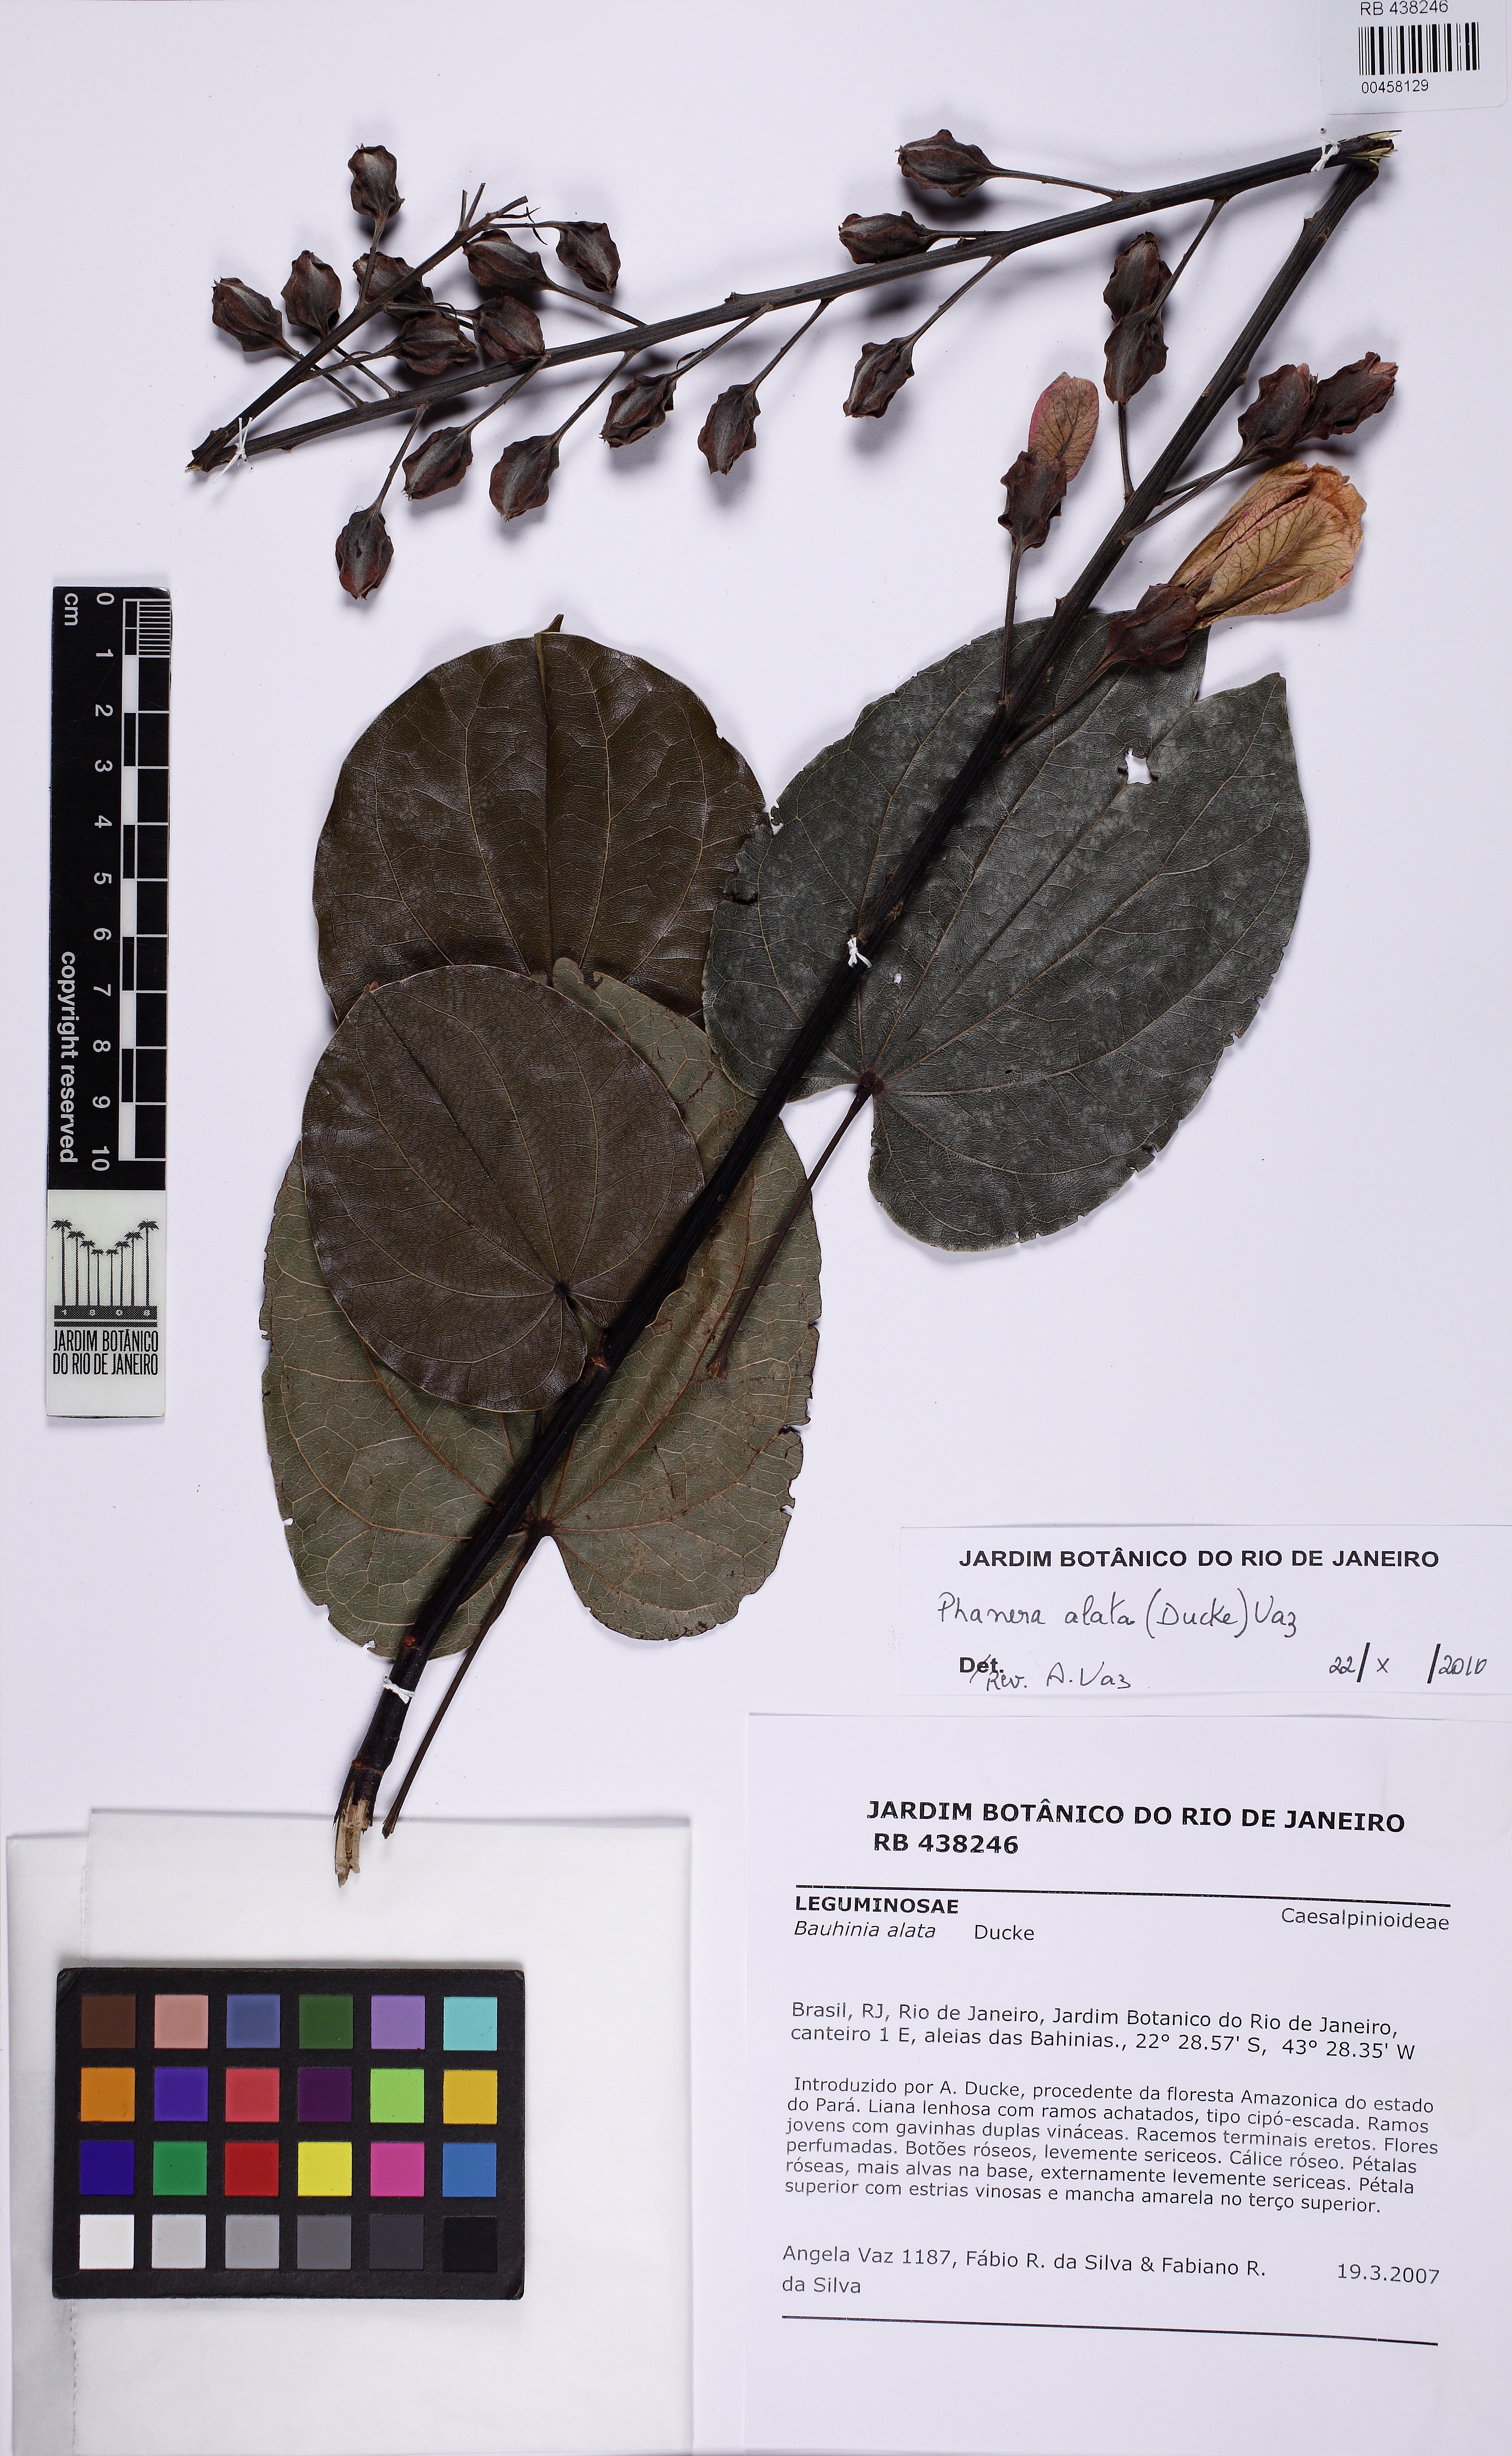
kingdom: Plantae
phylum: Tracheophyta
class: Magnoliopsida
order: Fabales
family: Fabaceae
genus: Schnella
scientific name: Schnella alata
